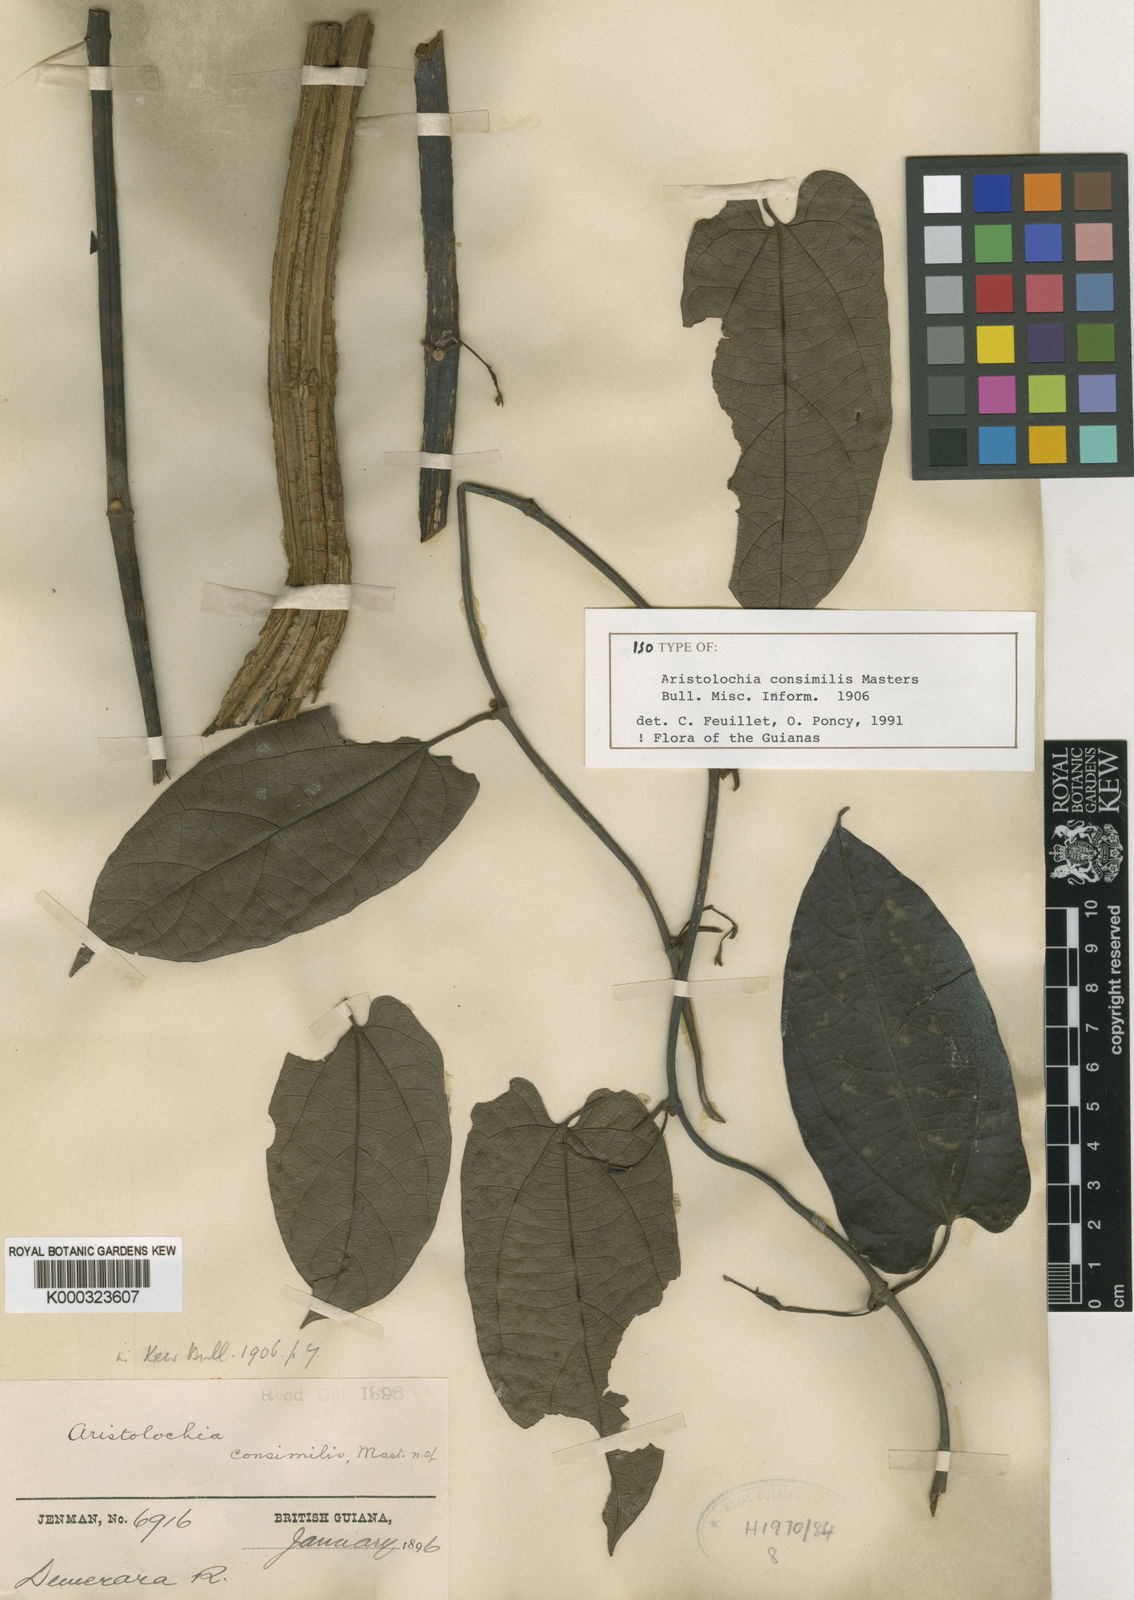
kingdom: Plantae
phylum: Tracheophyta
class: Magnoliopsida
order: Piperales
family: Aristolochiaceae
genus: Aristolochia
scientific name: Aristolochia consimilis
